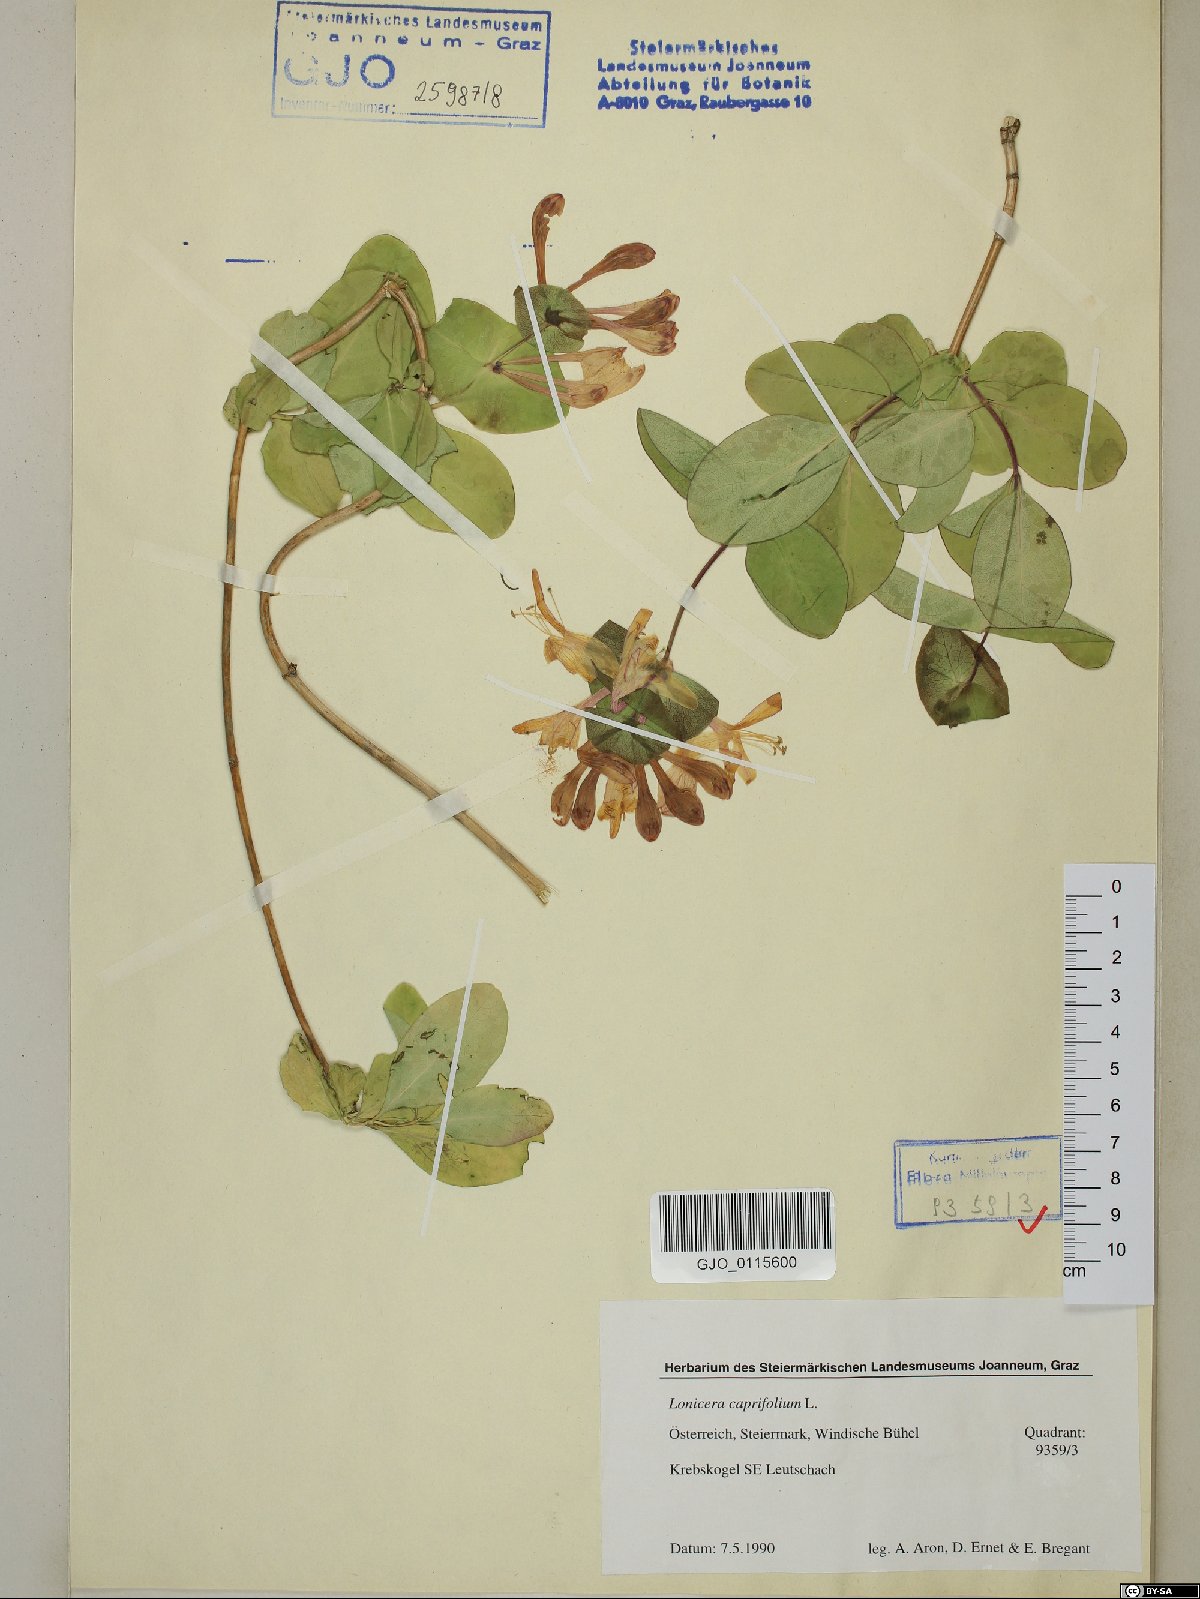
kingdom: Plantae
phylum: Tracheophyta
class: Magnoliopsida
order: Dipsacales
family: Caprifoliaceae
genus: Lonicera
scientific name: Lonicera caprifolium
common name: Perfoliate honeysuckle
